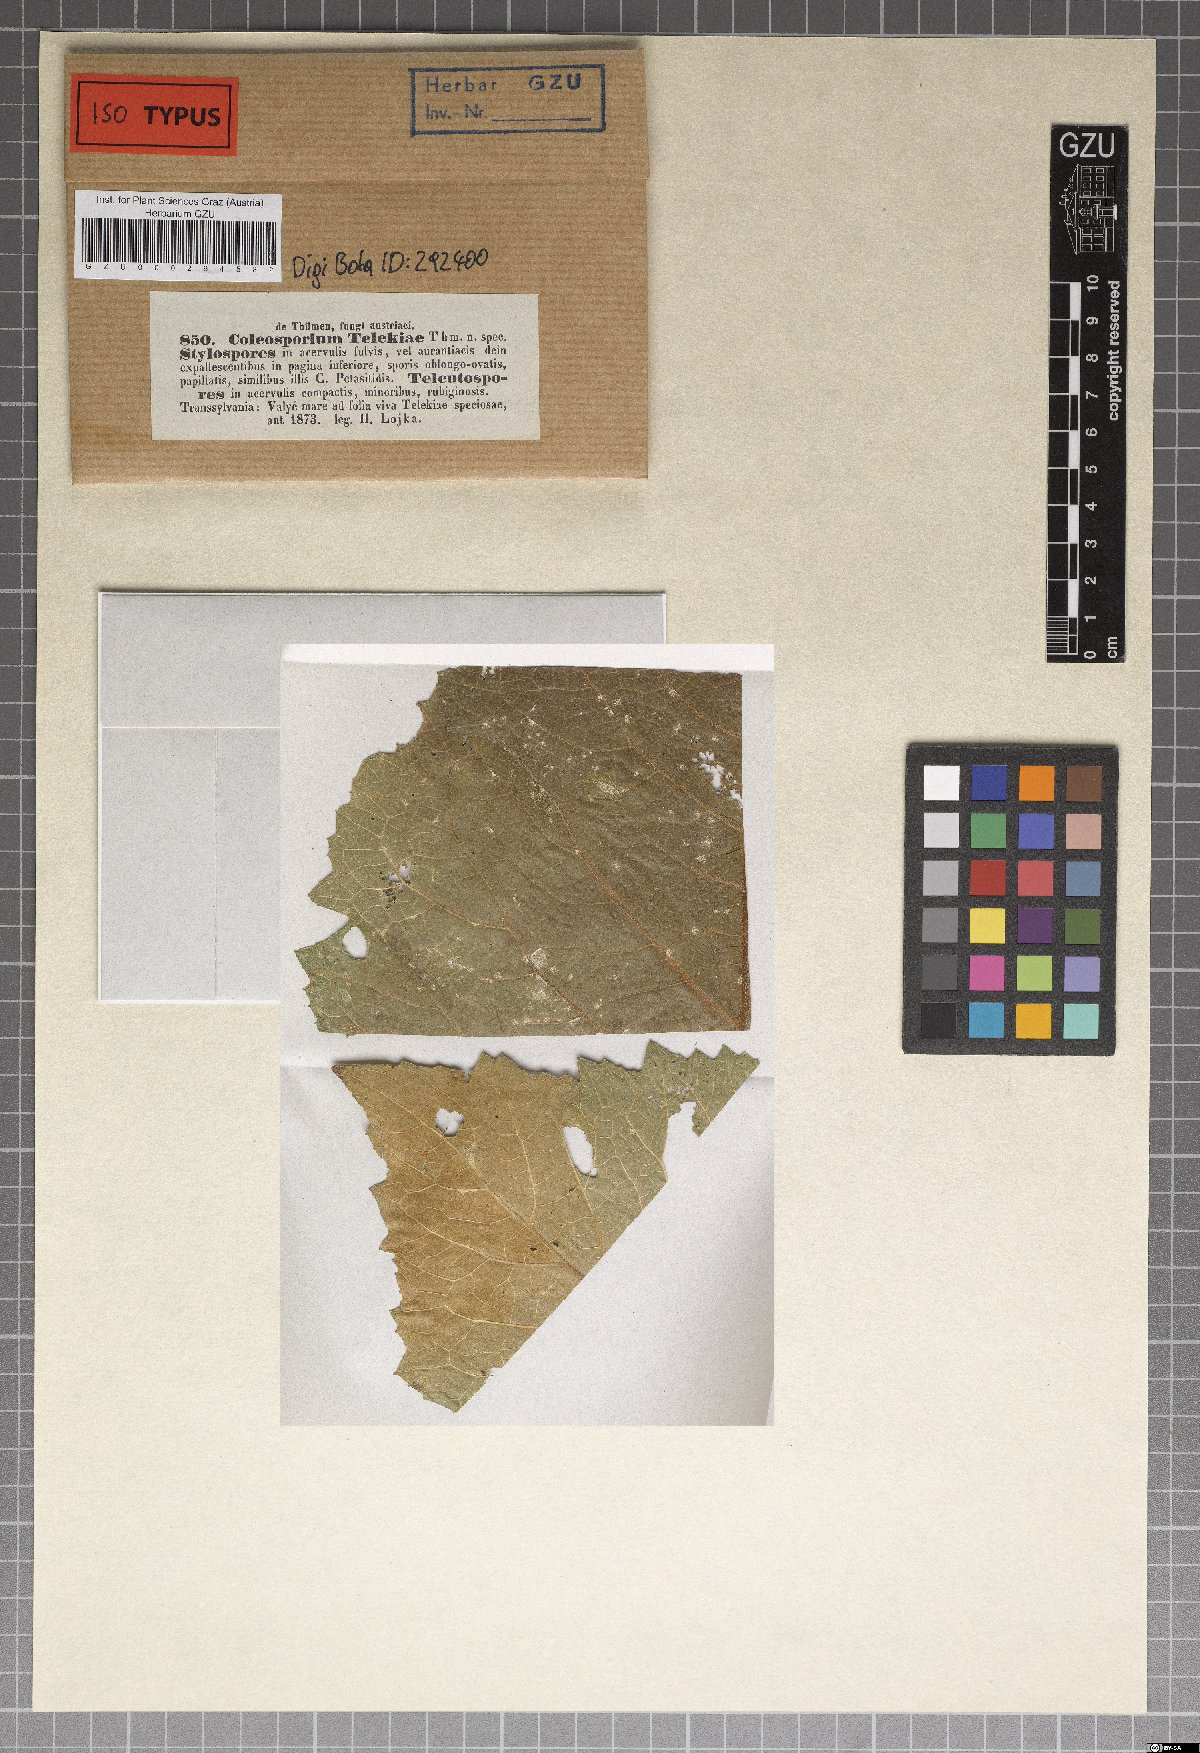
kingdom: Fungi
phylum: Basidiomycota
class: Pucciniomycetes
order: Pucciniales
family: Coleosporiaceae
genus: Coleosporium
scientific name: Coleosporium telekiae
